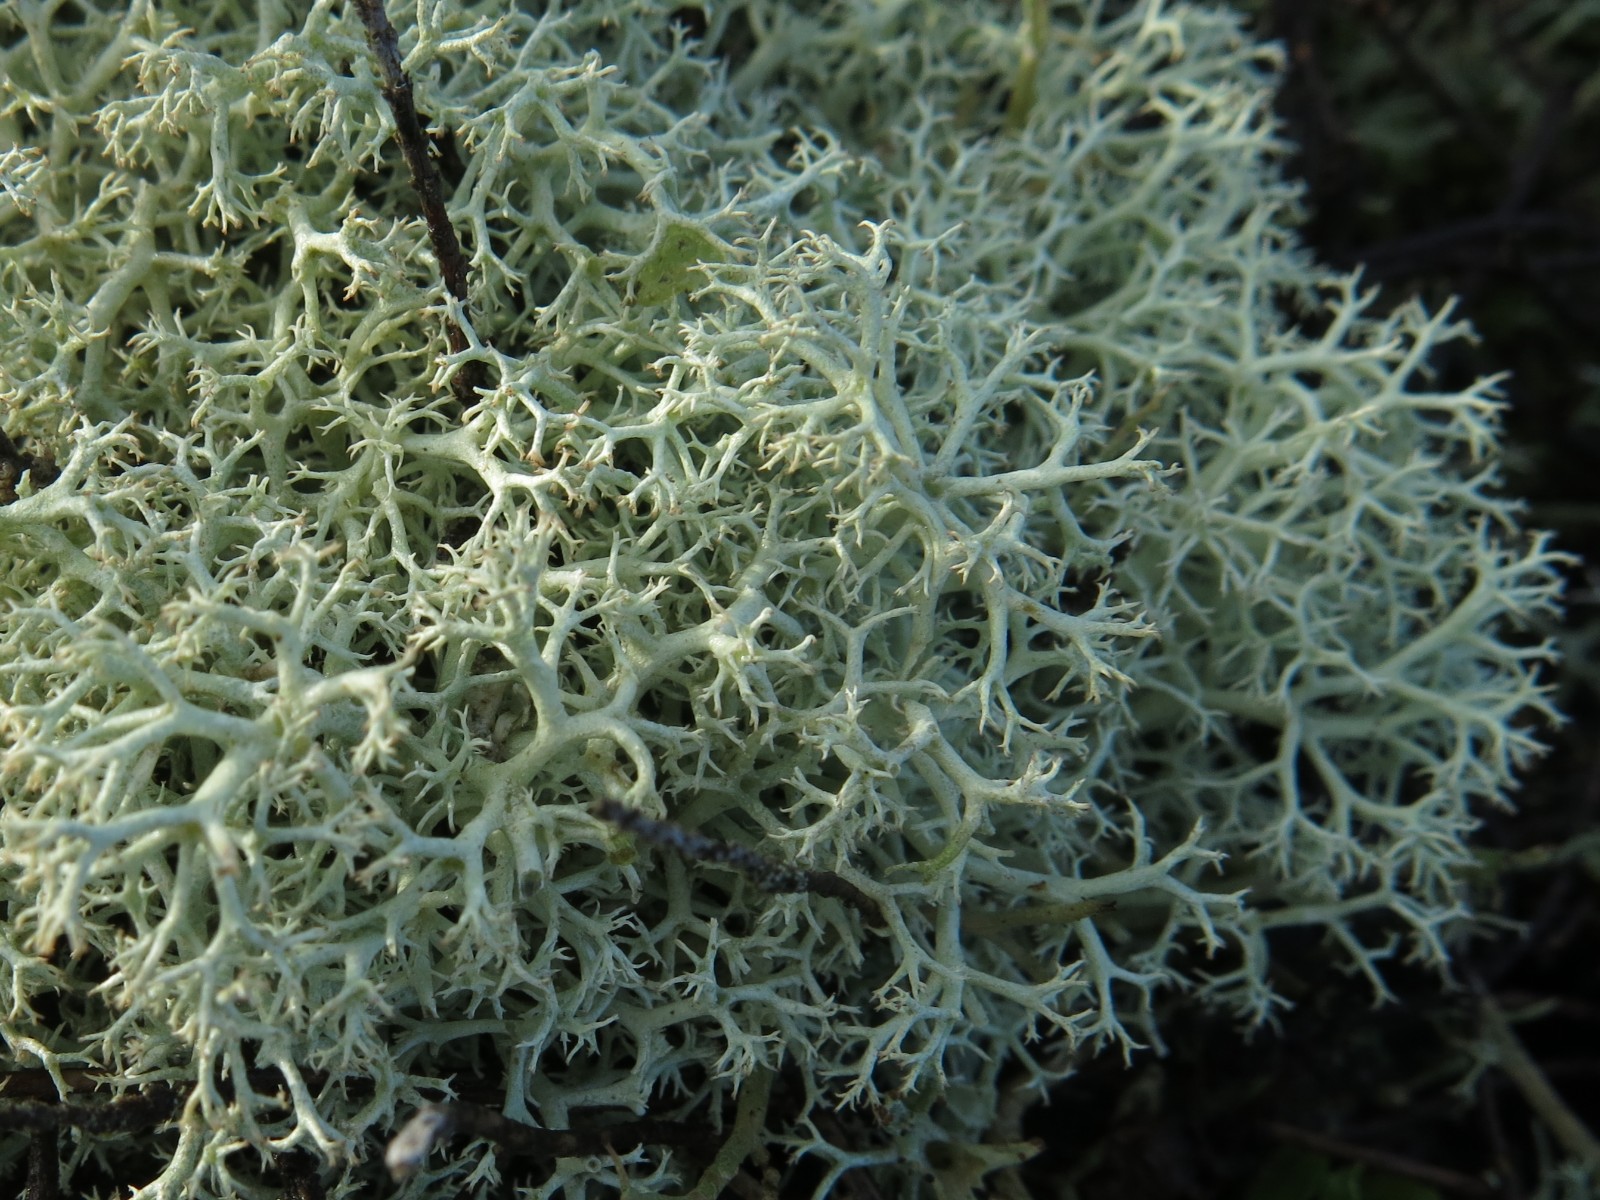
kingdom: Fungi
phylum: Ascomycota
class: Lecanoromycetes
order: Lecanorales
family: Cladoniaceae
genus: Cladonia
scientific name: Cladonia portentosa
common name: hede-rensdyrlav
